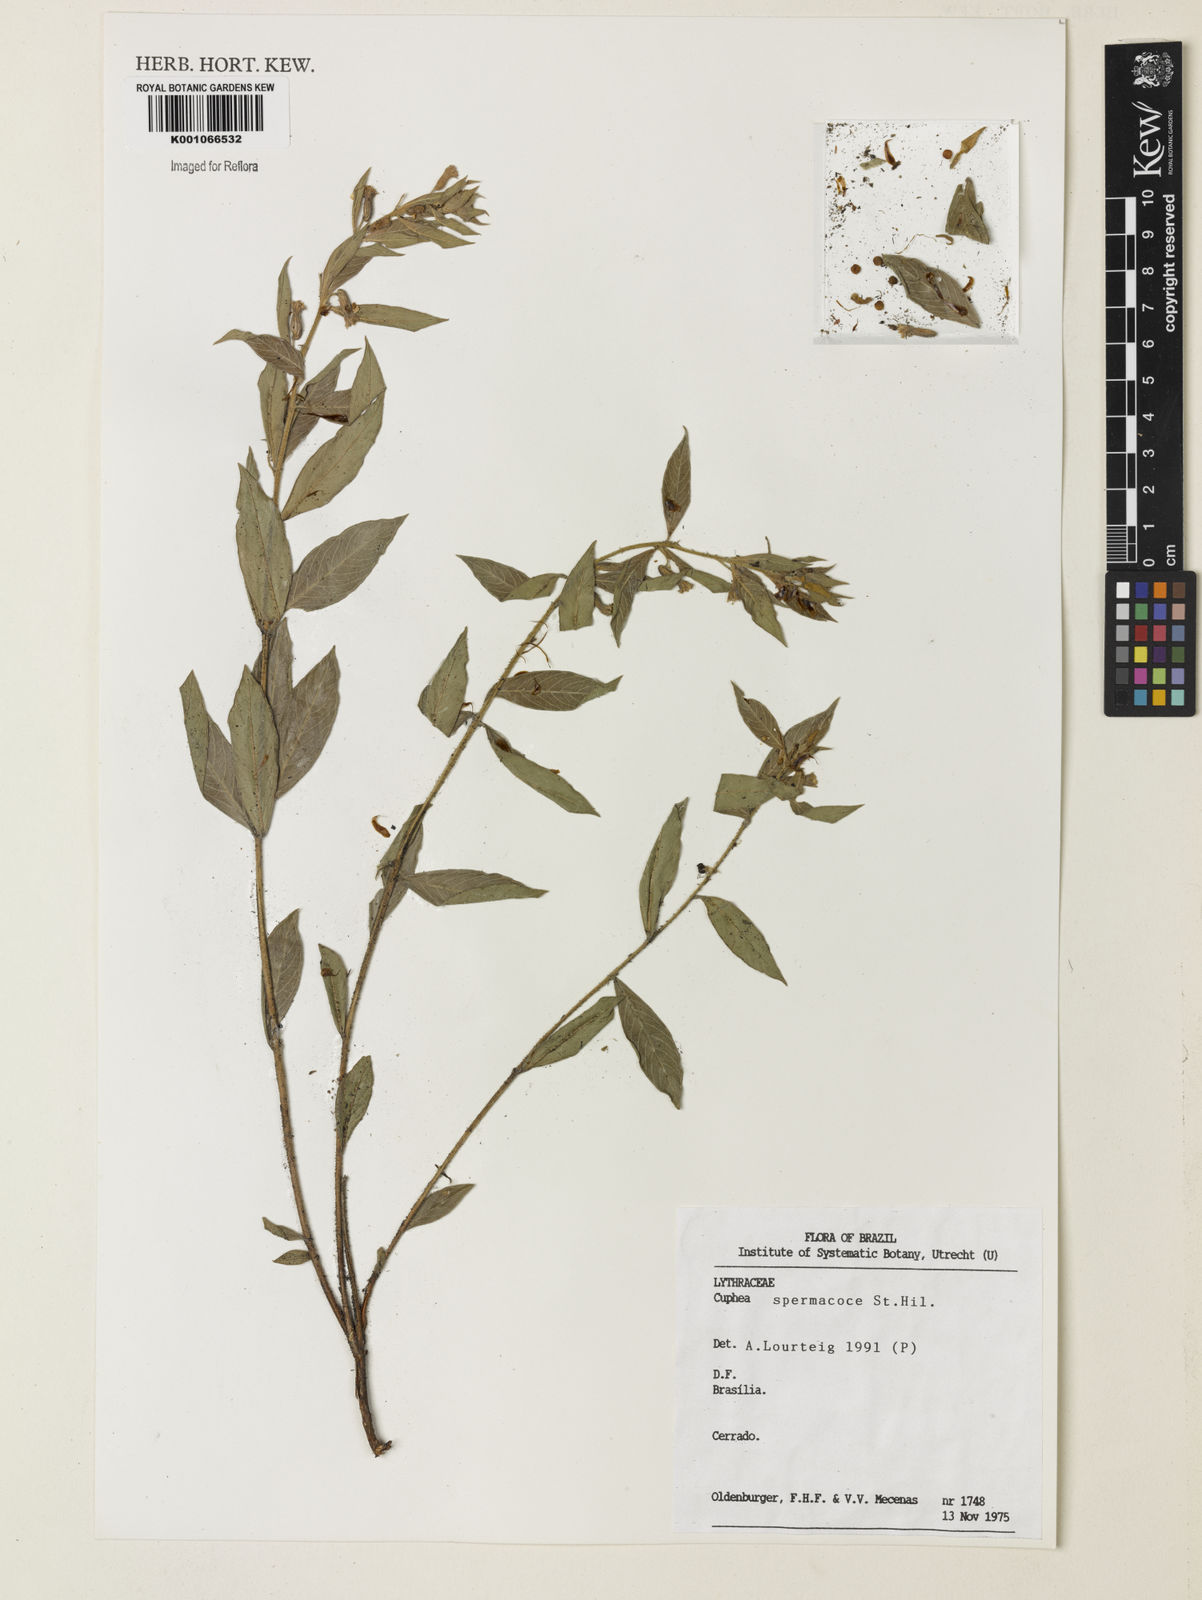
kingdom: Plantae
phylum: Tracheophyta
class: Magnoliopsida
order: Myrtales
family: Lythraceae
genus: Cuphea
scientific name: Cuphea spermacoce
